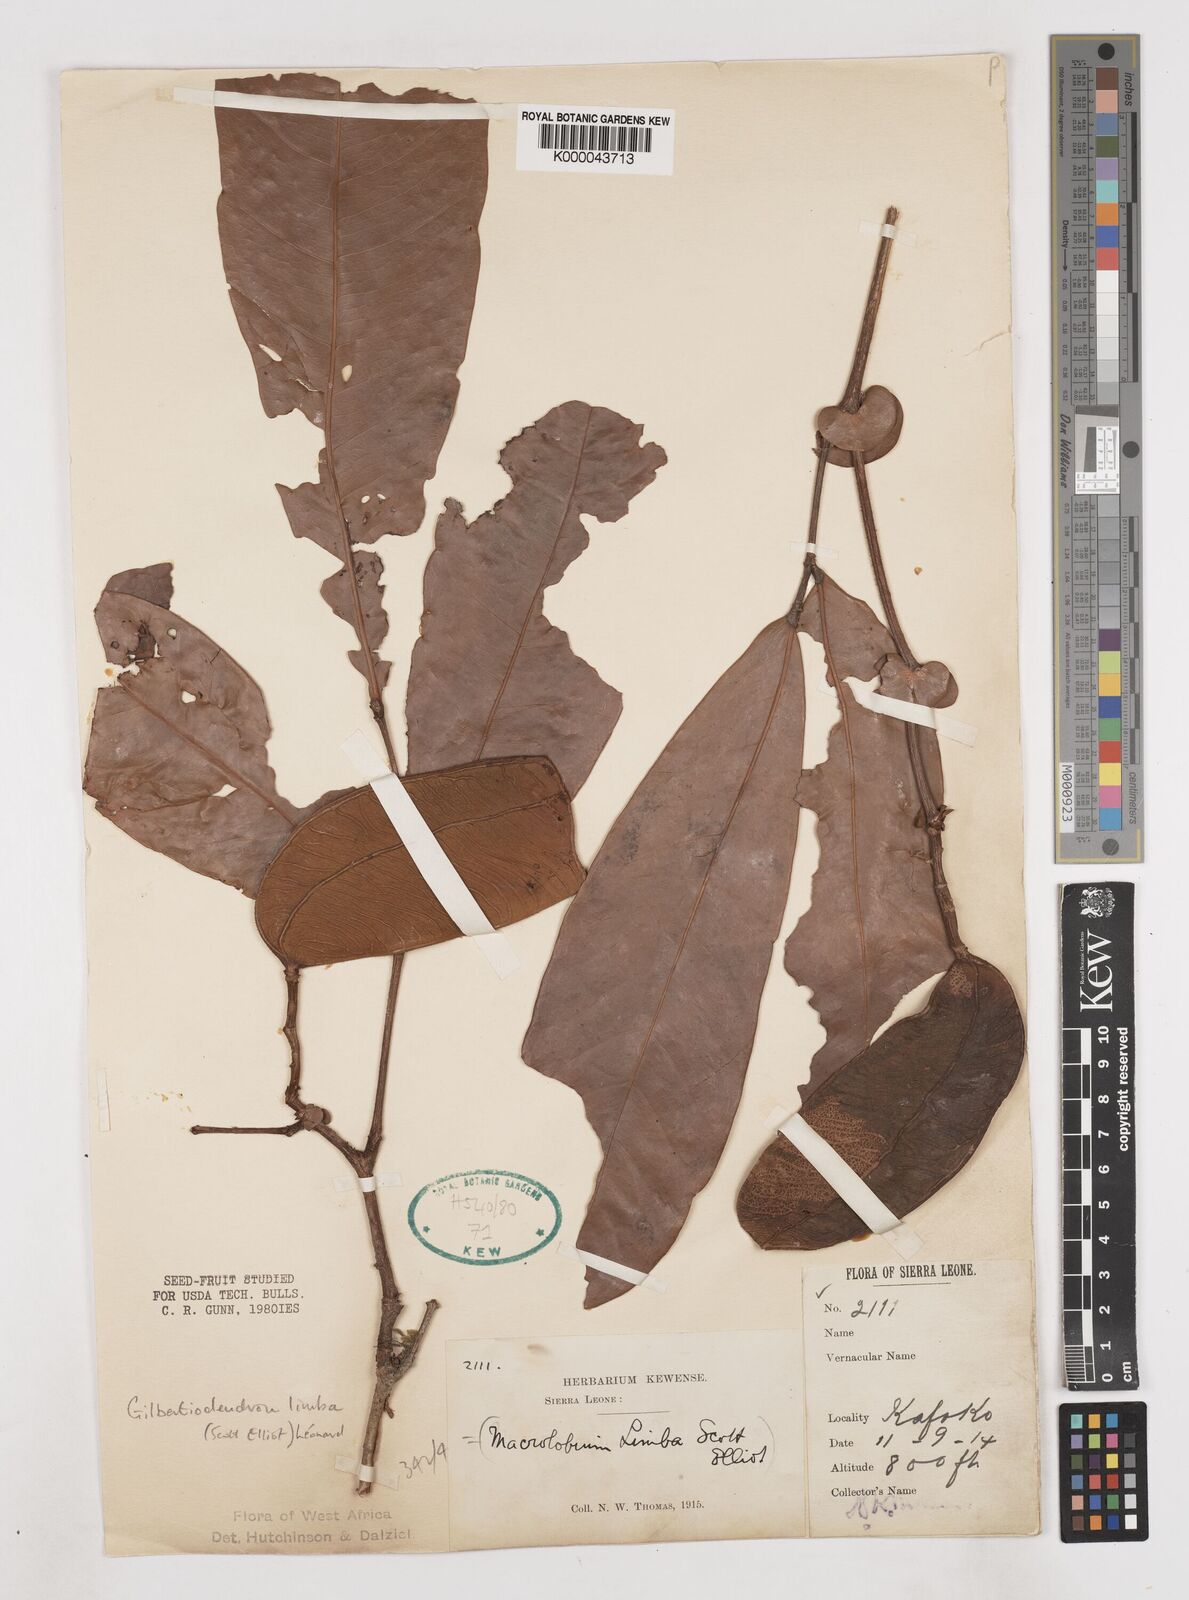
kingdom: Plantae
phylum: Tracheophyta
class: Magnoliopsida
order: Fabales
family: Fabaceae
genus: Gilbertiodendron
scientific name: Gilbertiodendron
